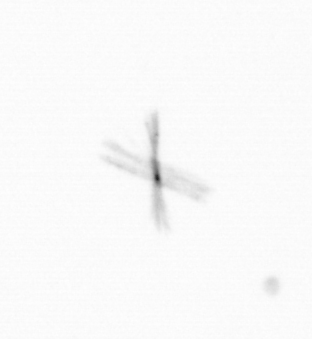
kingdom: Chromista
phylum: Ochrophyta
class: Bacillariophyceae
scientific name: Bacillariophyceae
